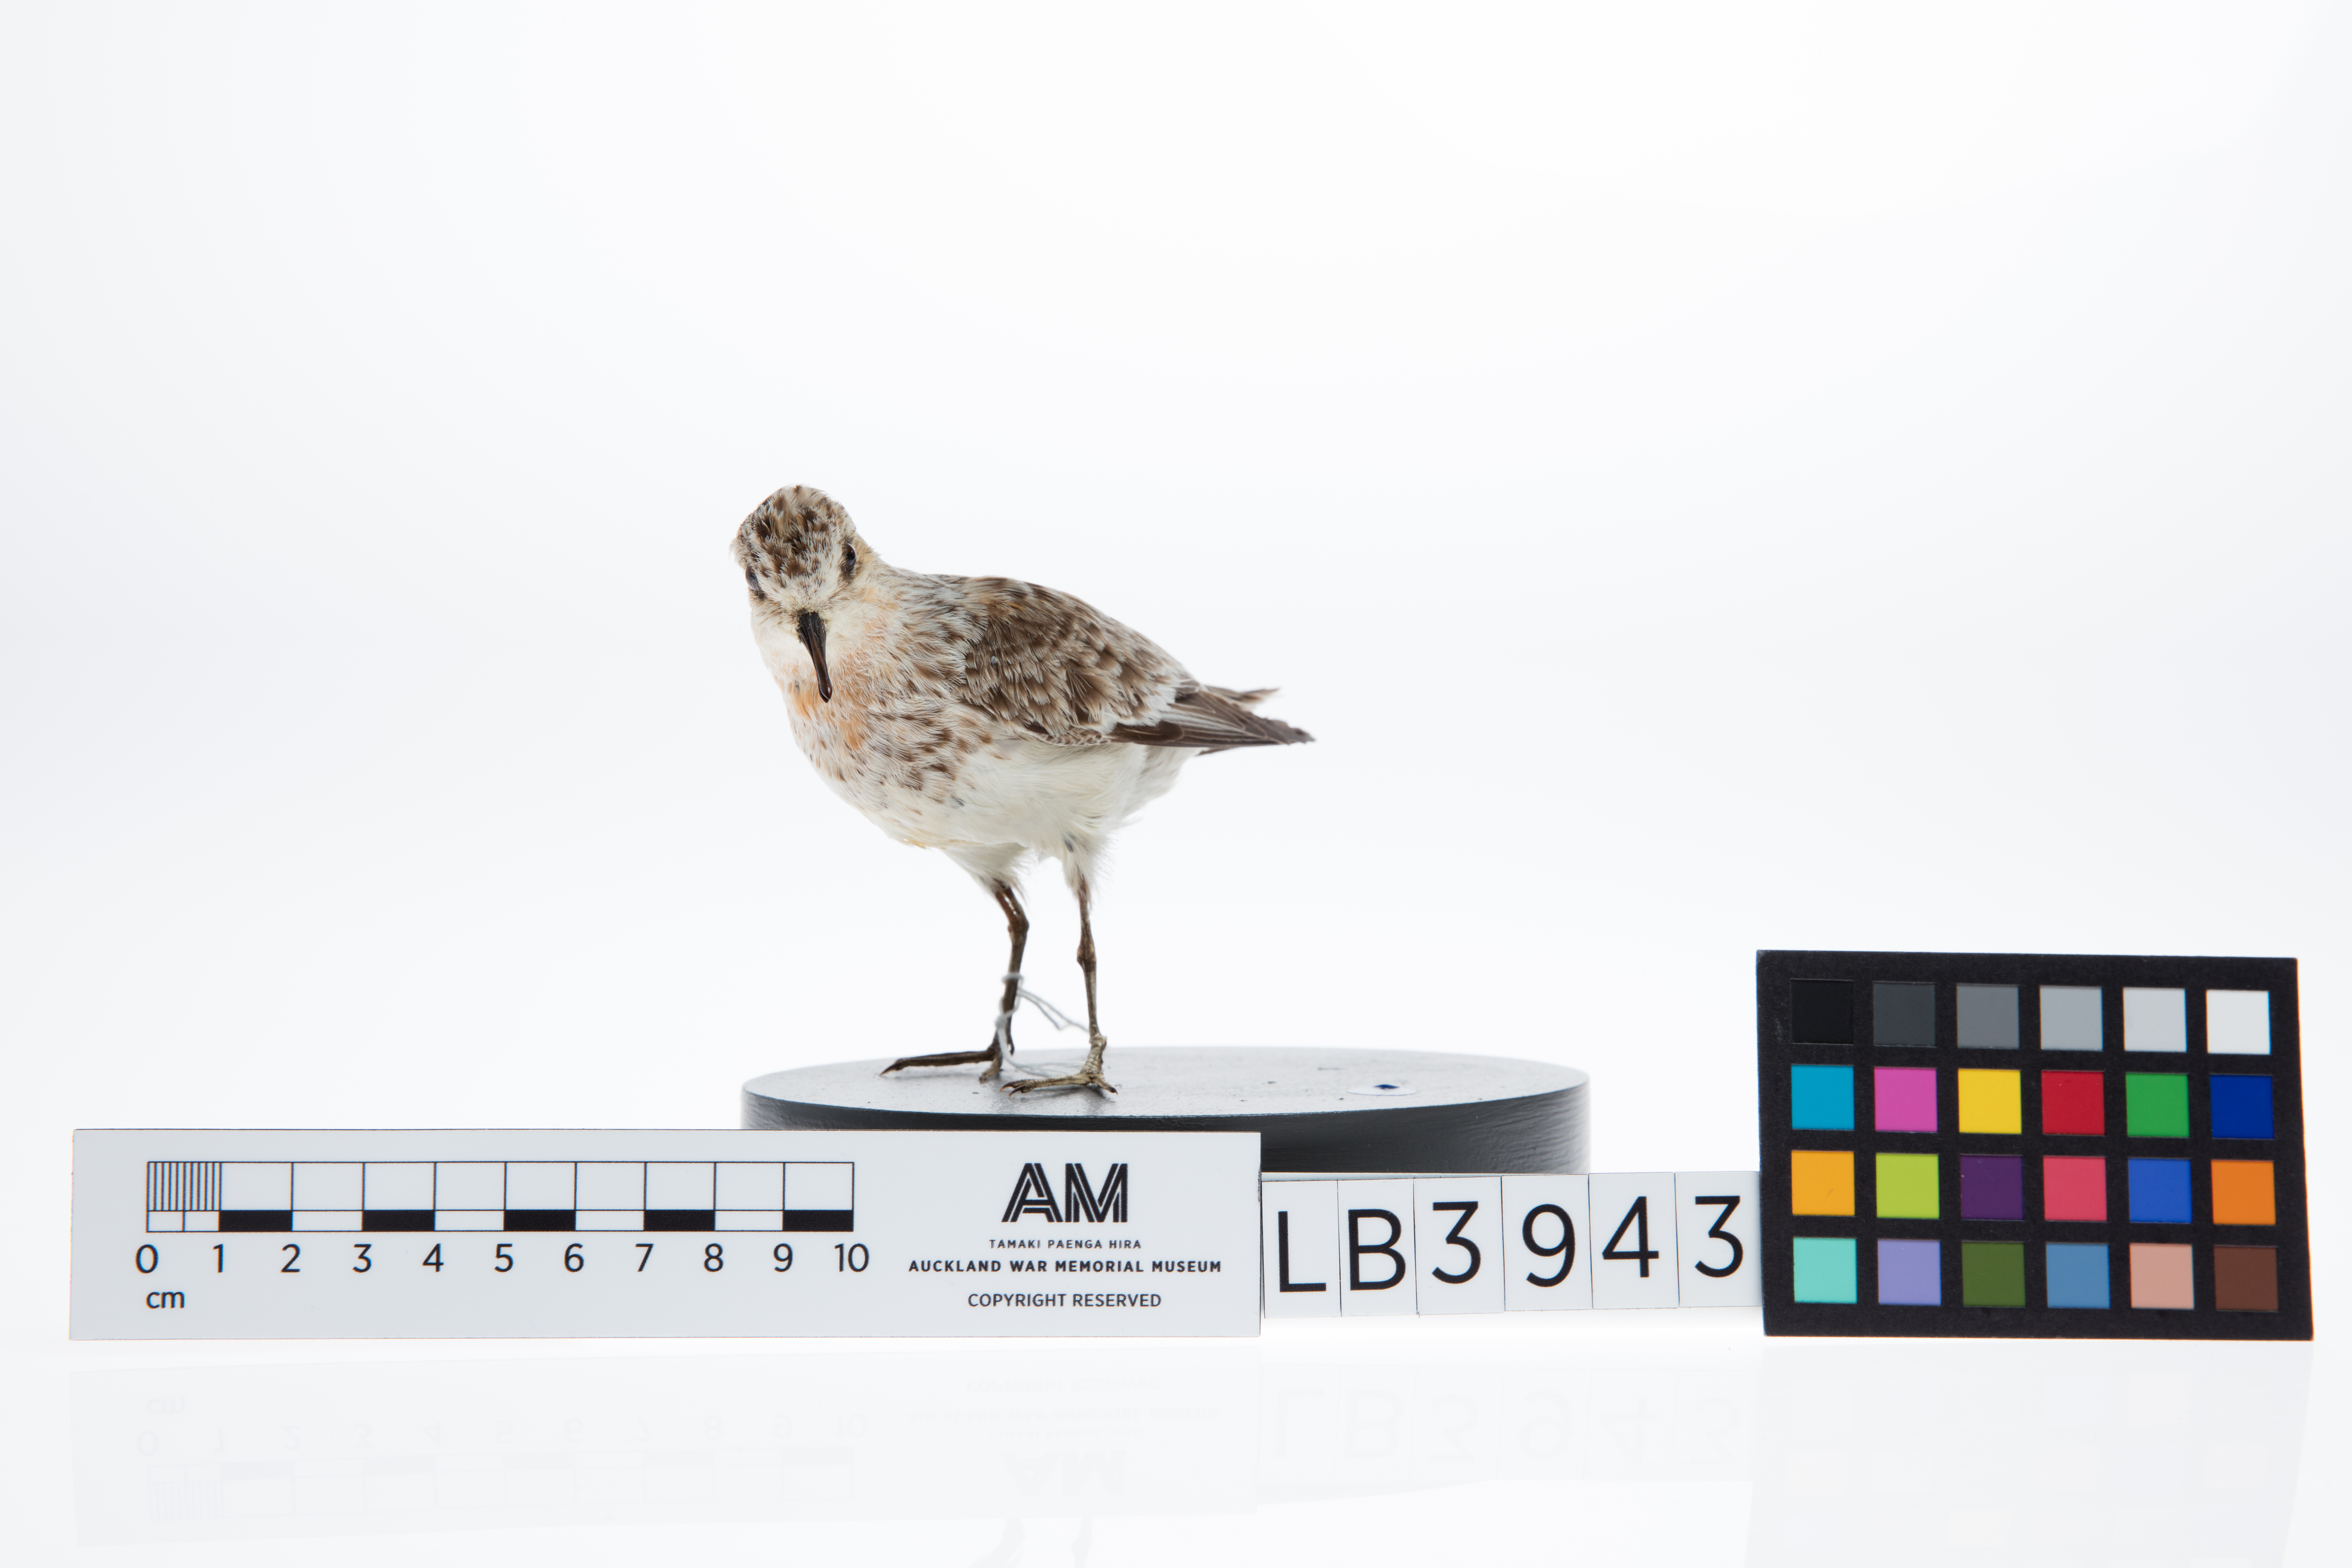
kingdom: Animalia
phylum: Chordata
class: Aves
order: Charadriiformes
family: Scolopacidae
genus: Calidris
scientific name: Calidris ruficollis
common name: Red-necked stint
